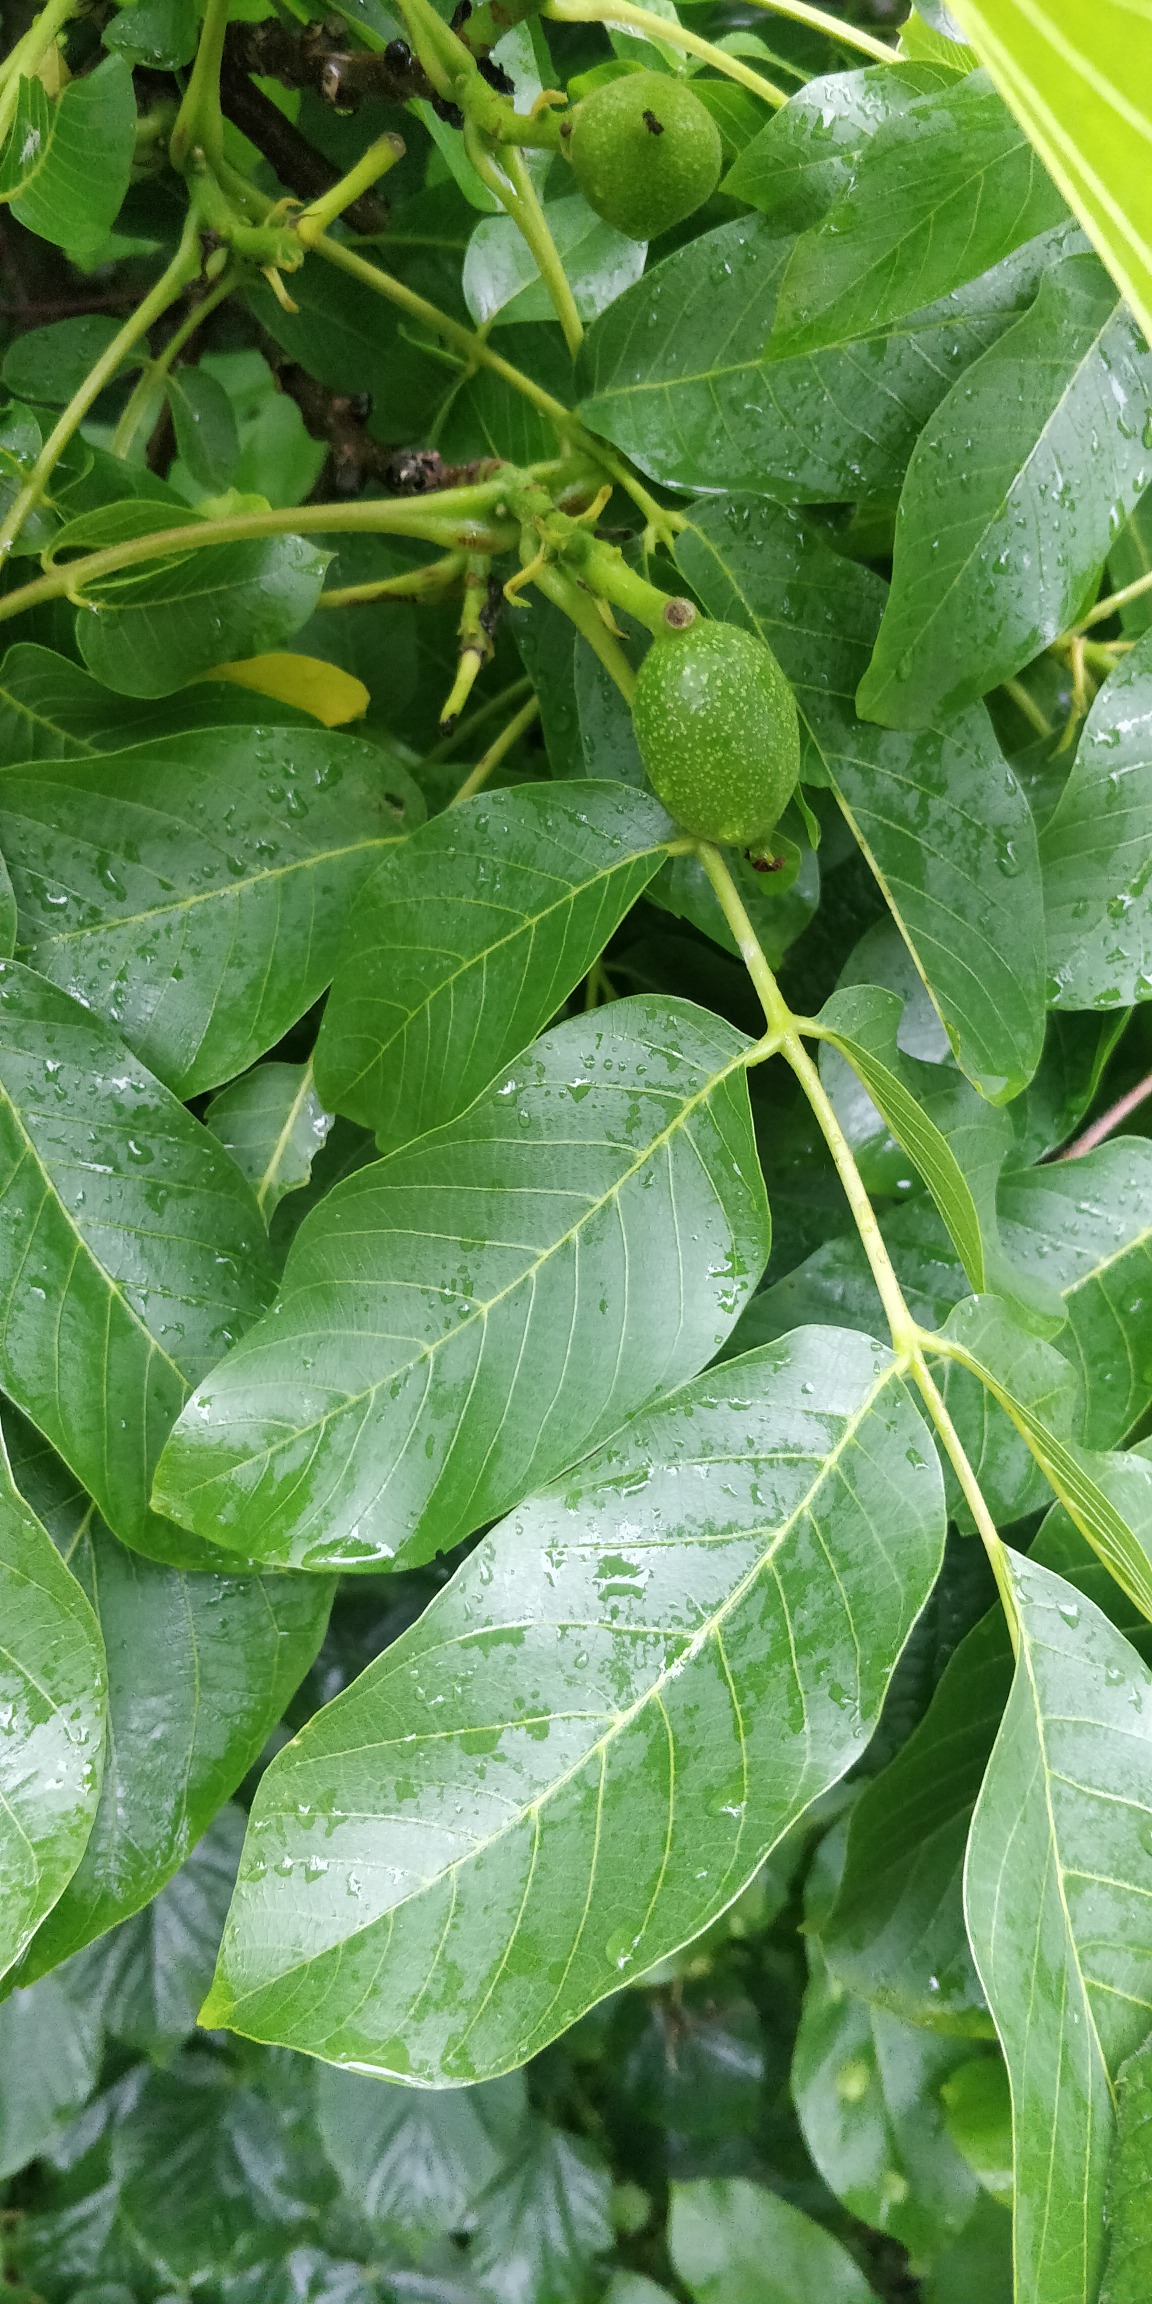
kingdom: Plantae
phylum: Tracheophyta
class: Magnoliopsida
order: Fagales
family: Juglandaceae
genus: Juglans
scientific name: Juglans regia
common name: Almindelig valnød
